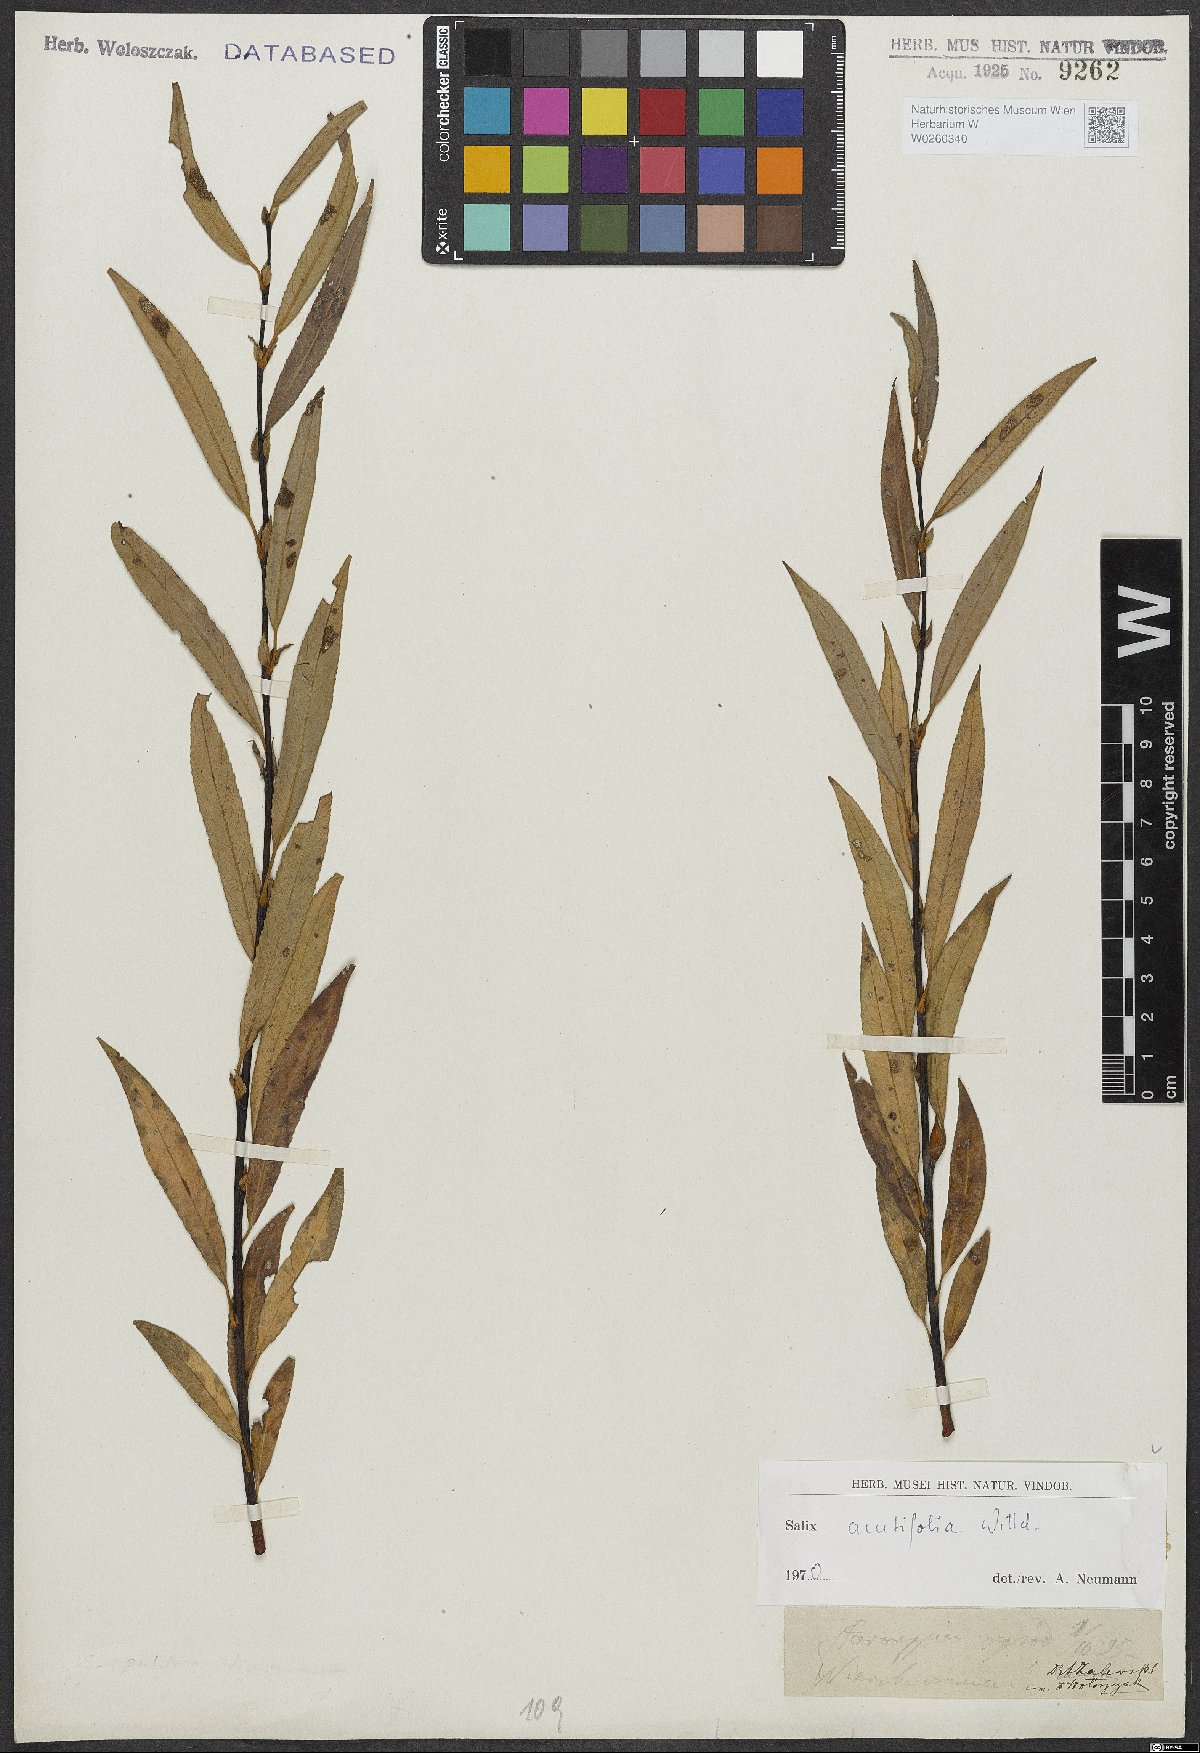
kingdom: Plantae
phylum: Tracheophyta
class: Magnoliopsida
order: Malpighiales
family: Salicaceae
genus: Salix
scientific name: Salix acutifolia
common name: Siberian violet-willow
